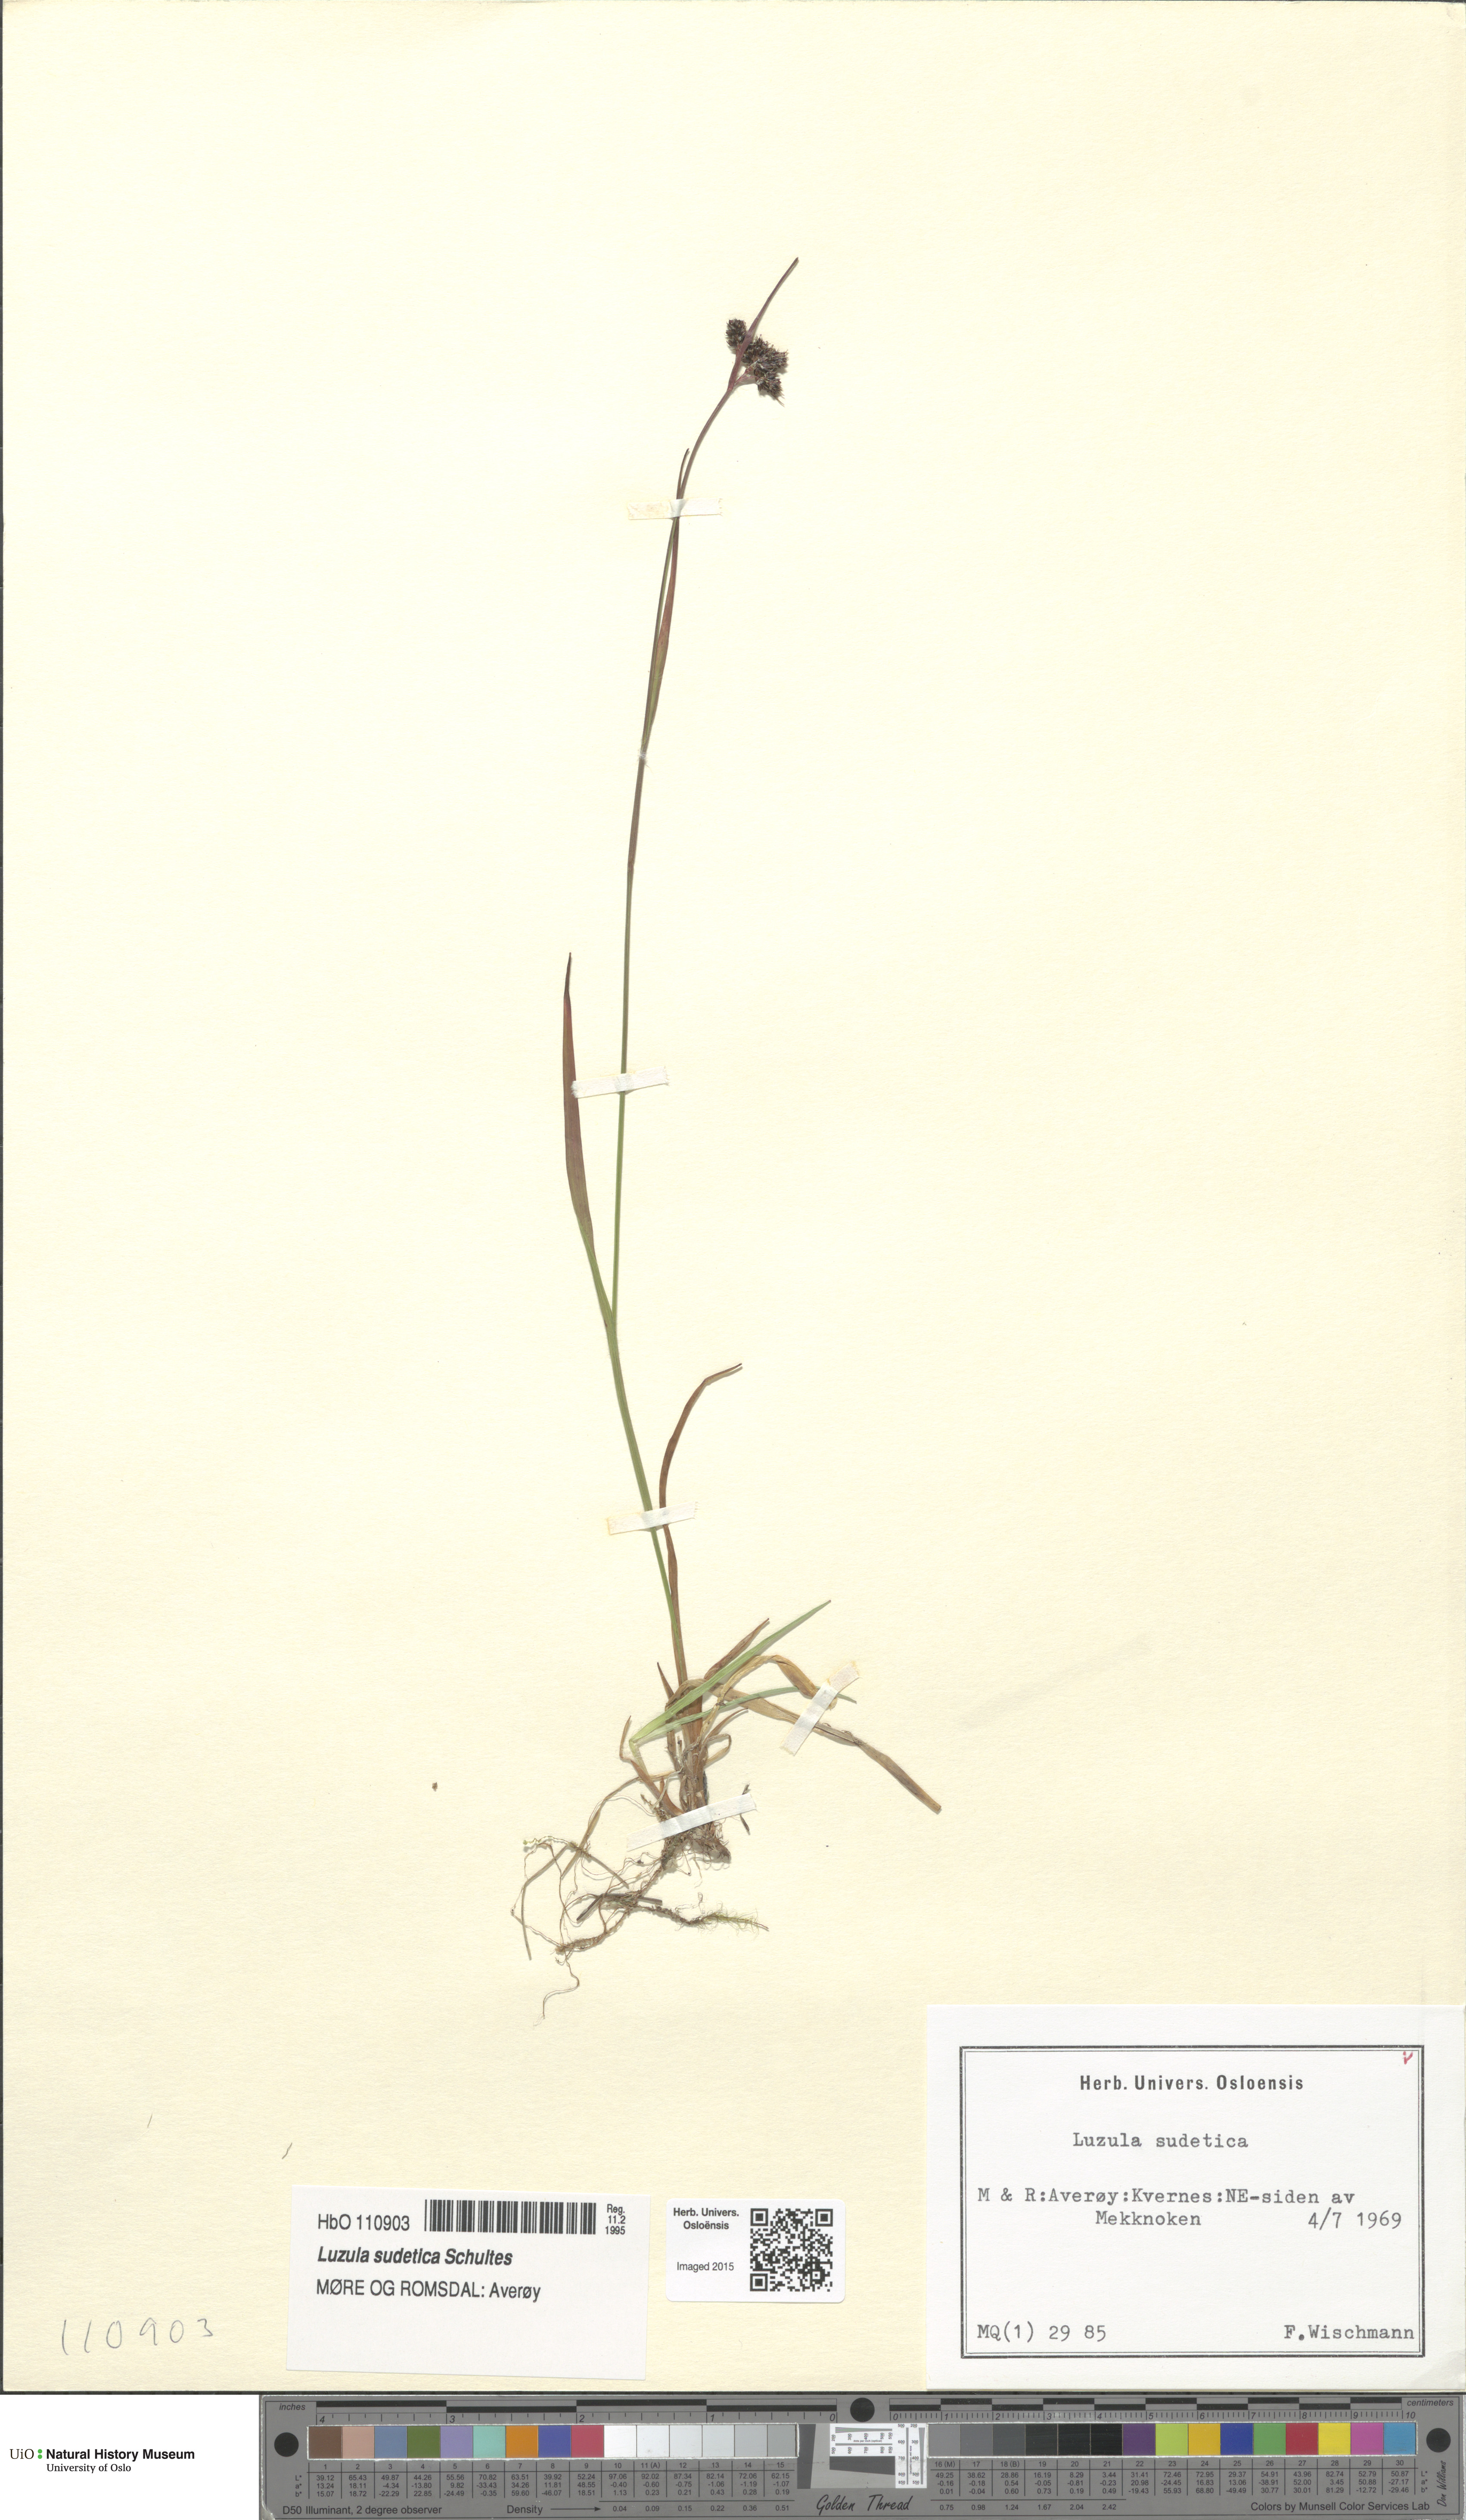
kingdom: Plantae
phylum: Tracheophyta
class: Liliopsida
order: Poales
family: Juncaceae
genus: Luzula
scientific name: Luzula sudetica
